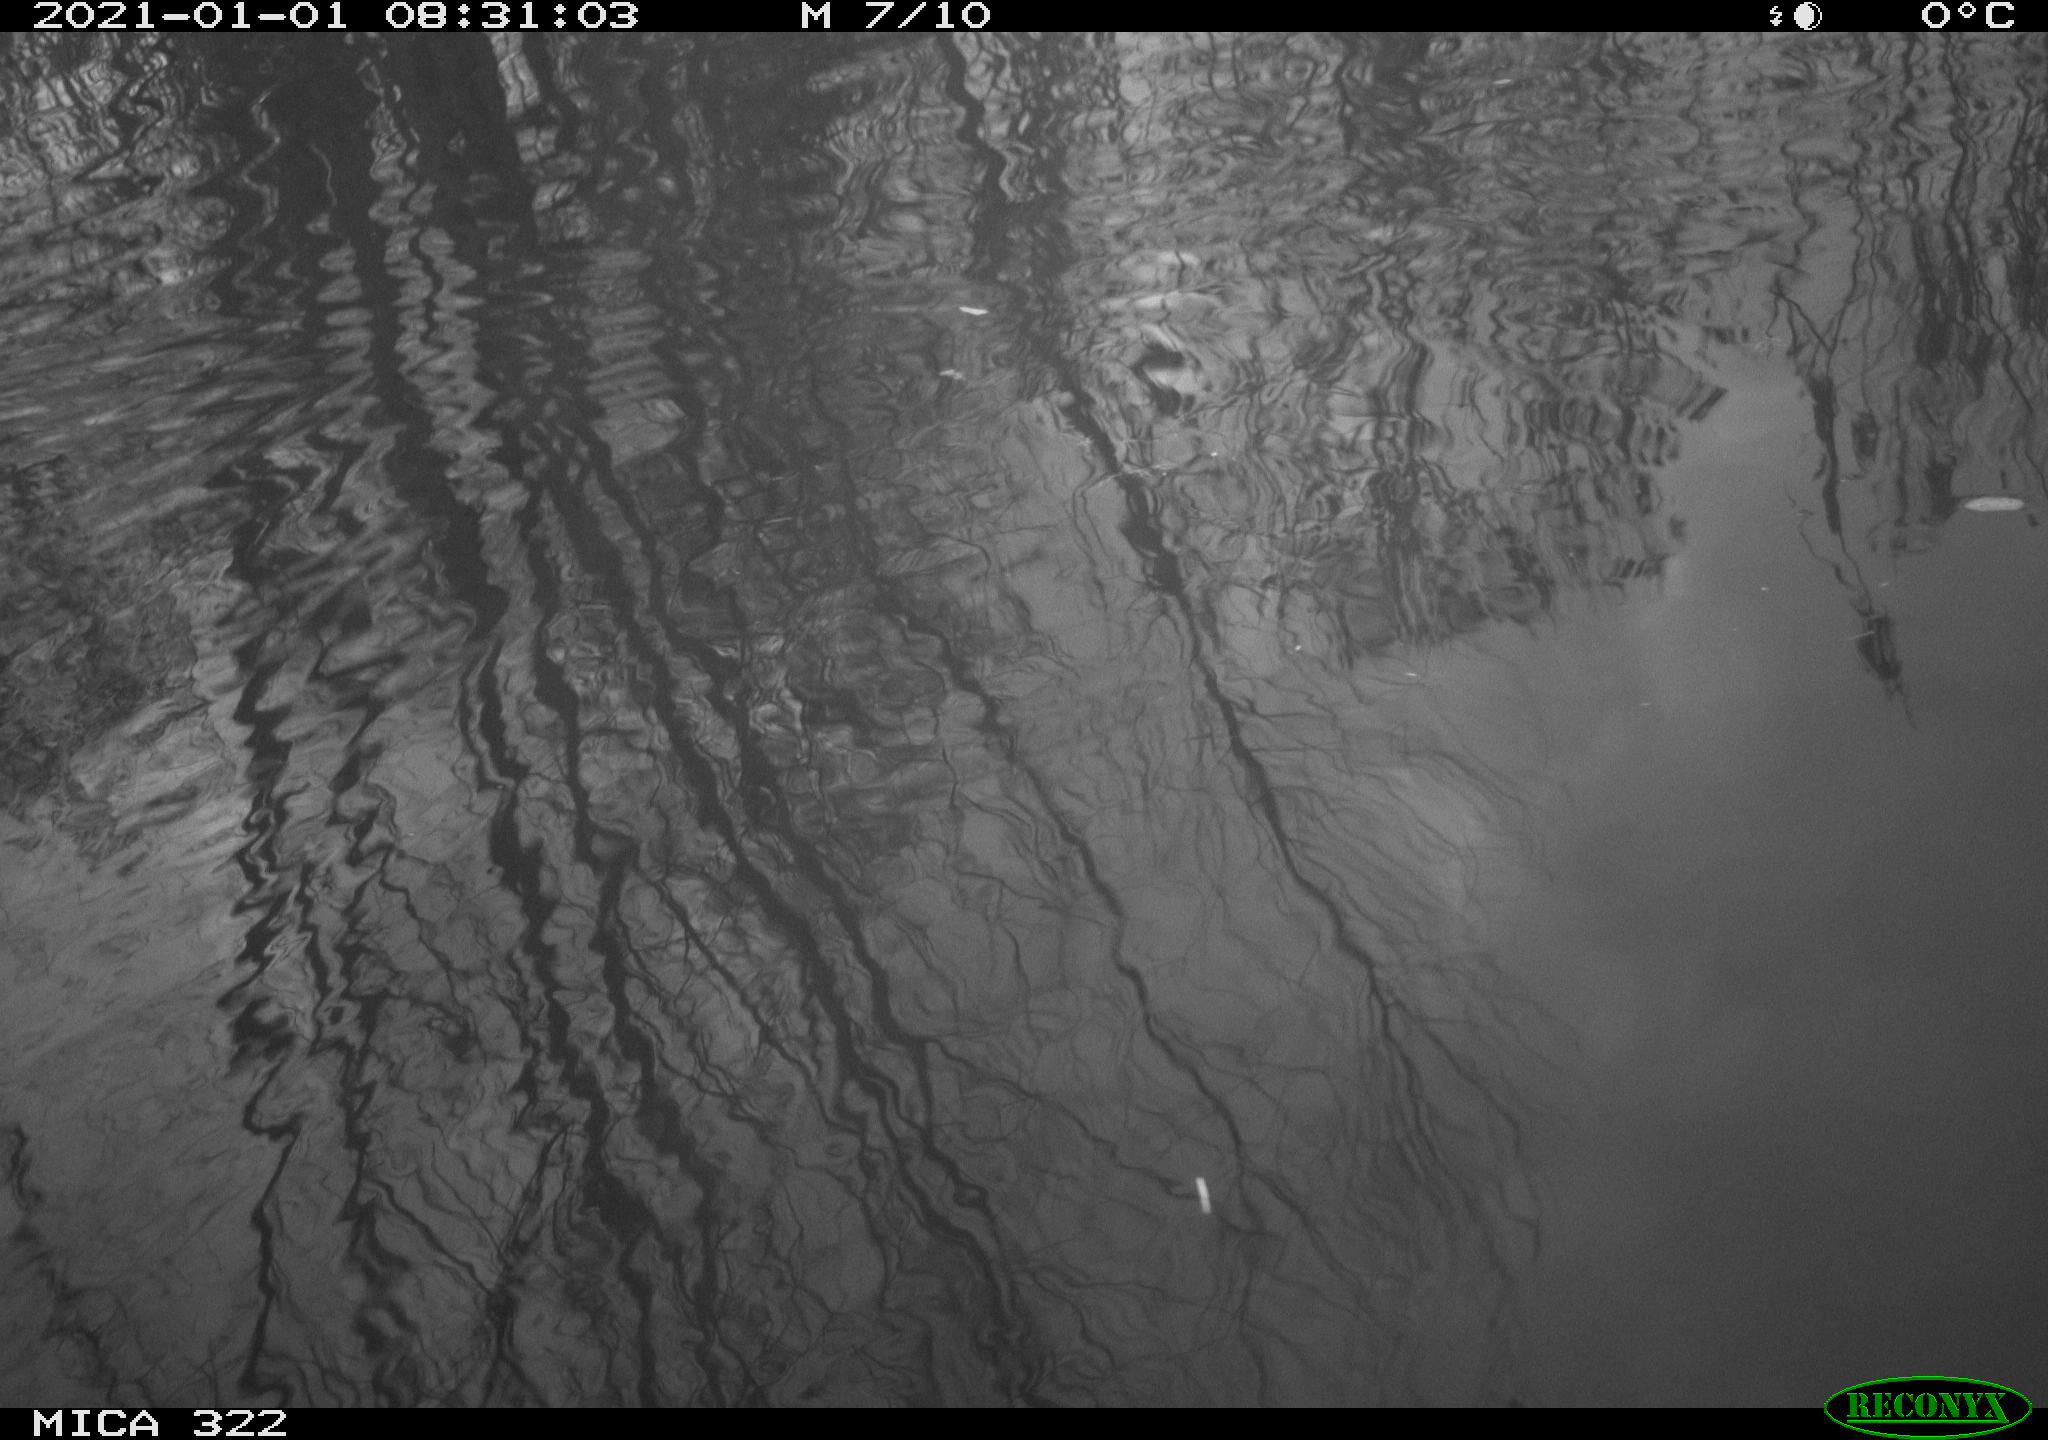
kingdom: Animalia
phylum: Chordata
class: Aves
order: Gruiformes
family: Rallidae
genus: Fulica
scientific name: Fulica atra
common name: Eurasian coot
